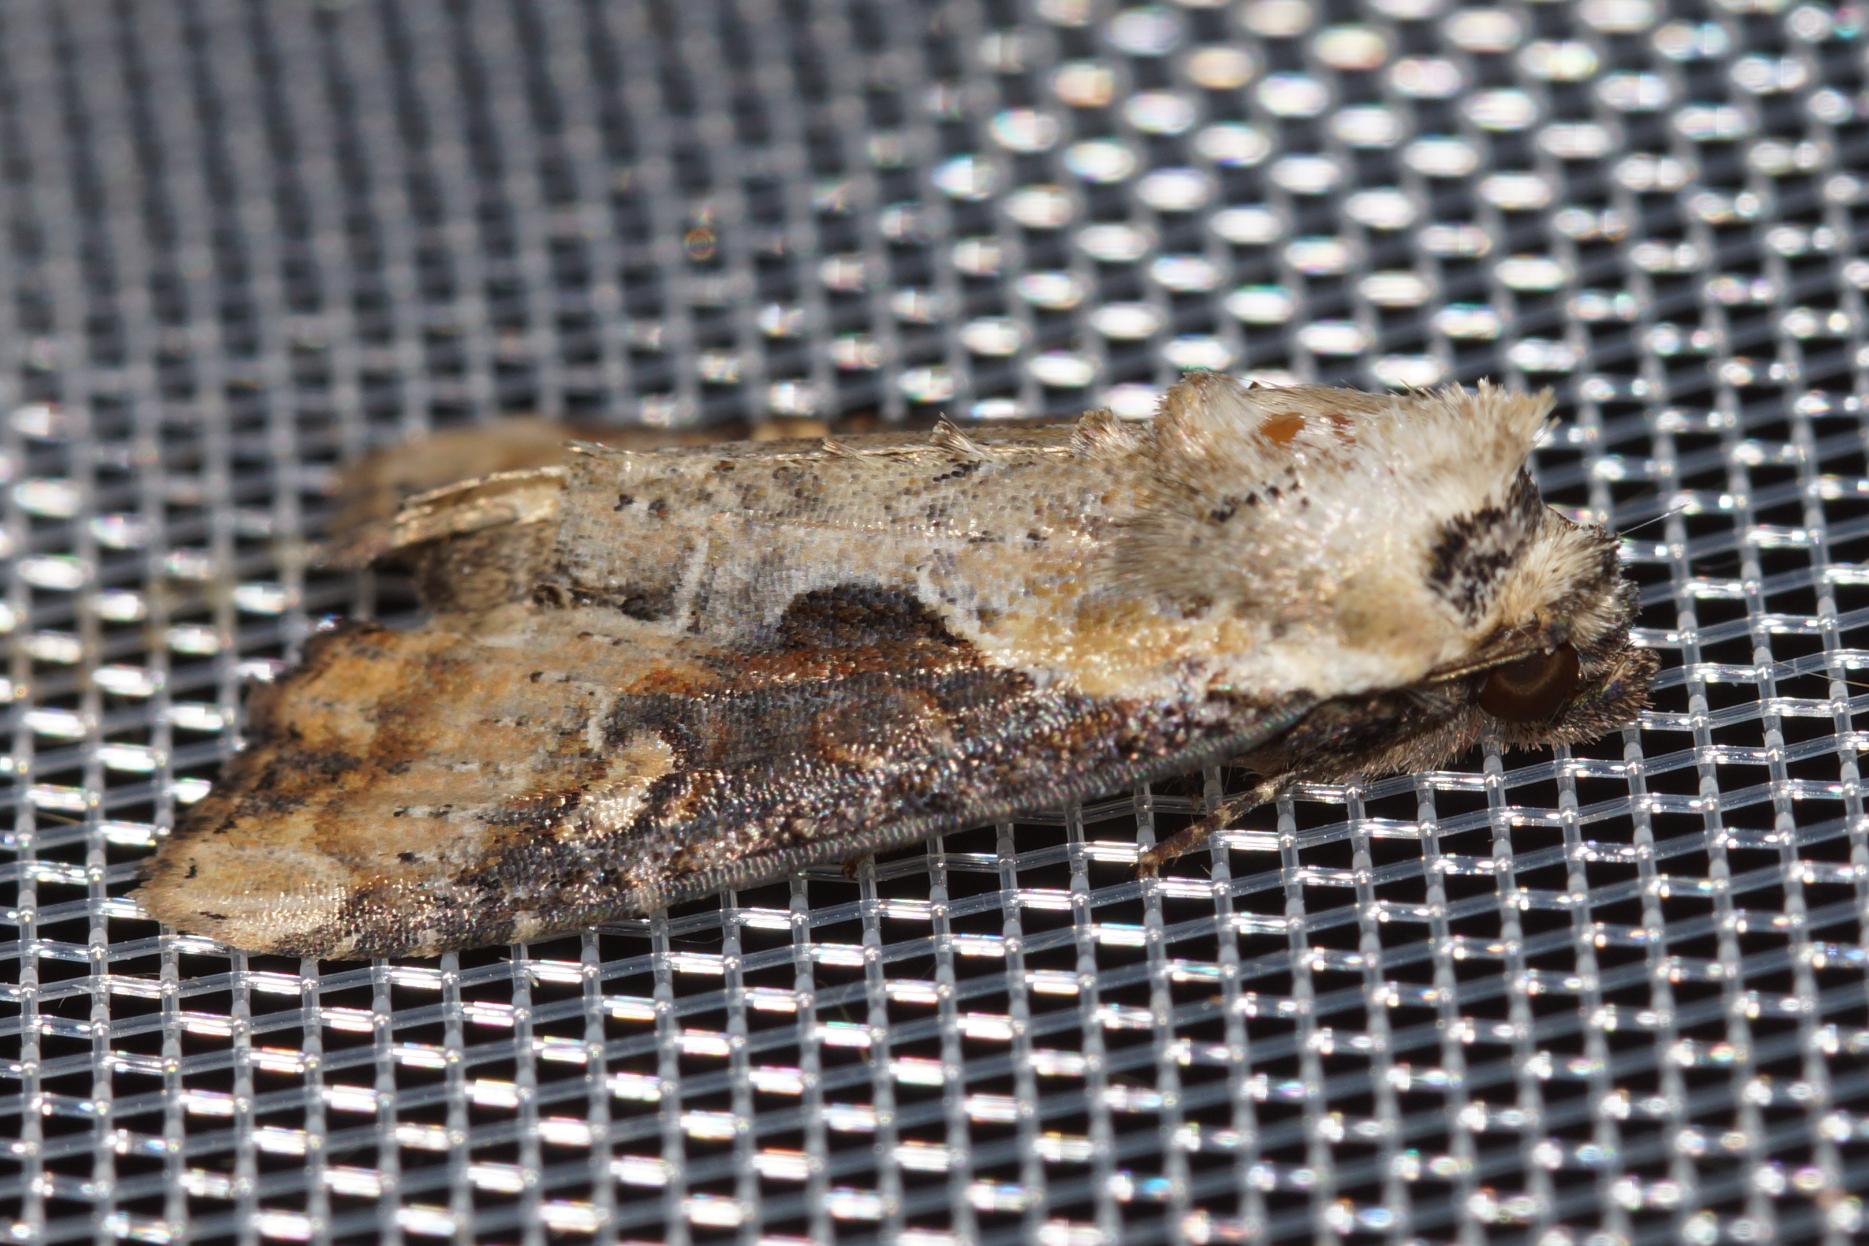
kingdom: Animalia
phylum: Arthropoda
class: Insecta
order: Lepidoptera
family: Noctuidae
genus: Lateroligia
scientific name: Lateroligia ophiogramma
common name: Slange-stængelugle
